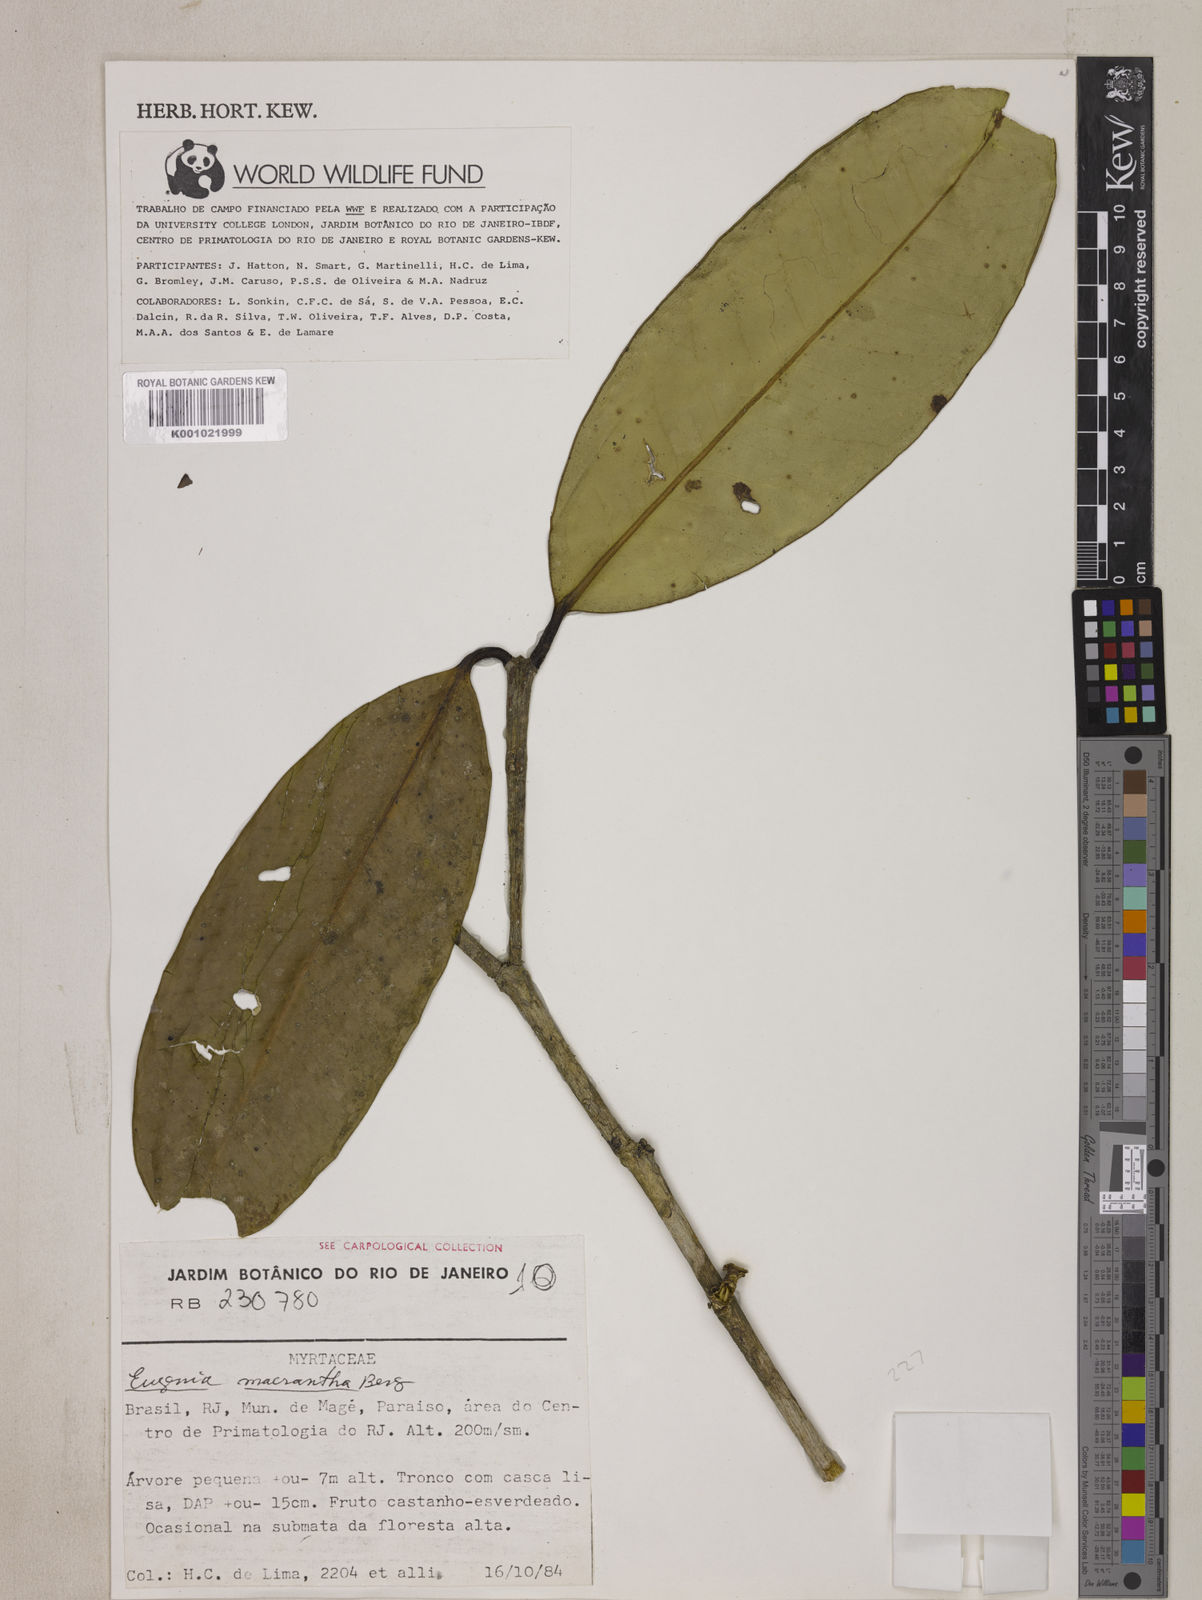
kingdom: Plantae
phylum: Tracheophyta
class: Magnoliopsida
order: Myrtales
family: Myrtaceae
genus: Eugenia
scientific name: Eugenia macrantha
